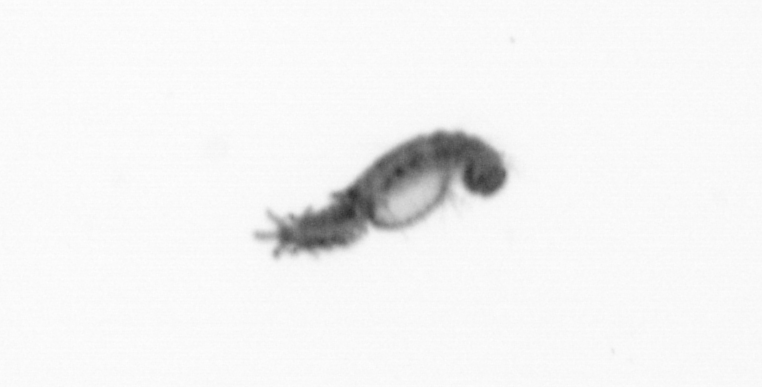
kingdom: Animalia
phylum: Annelida
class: Polychaeta
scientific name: Polychaeta
